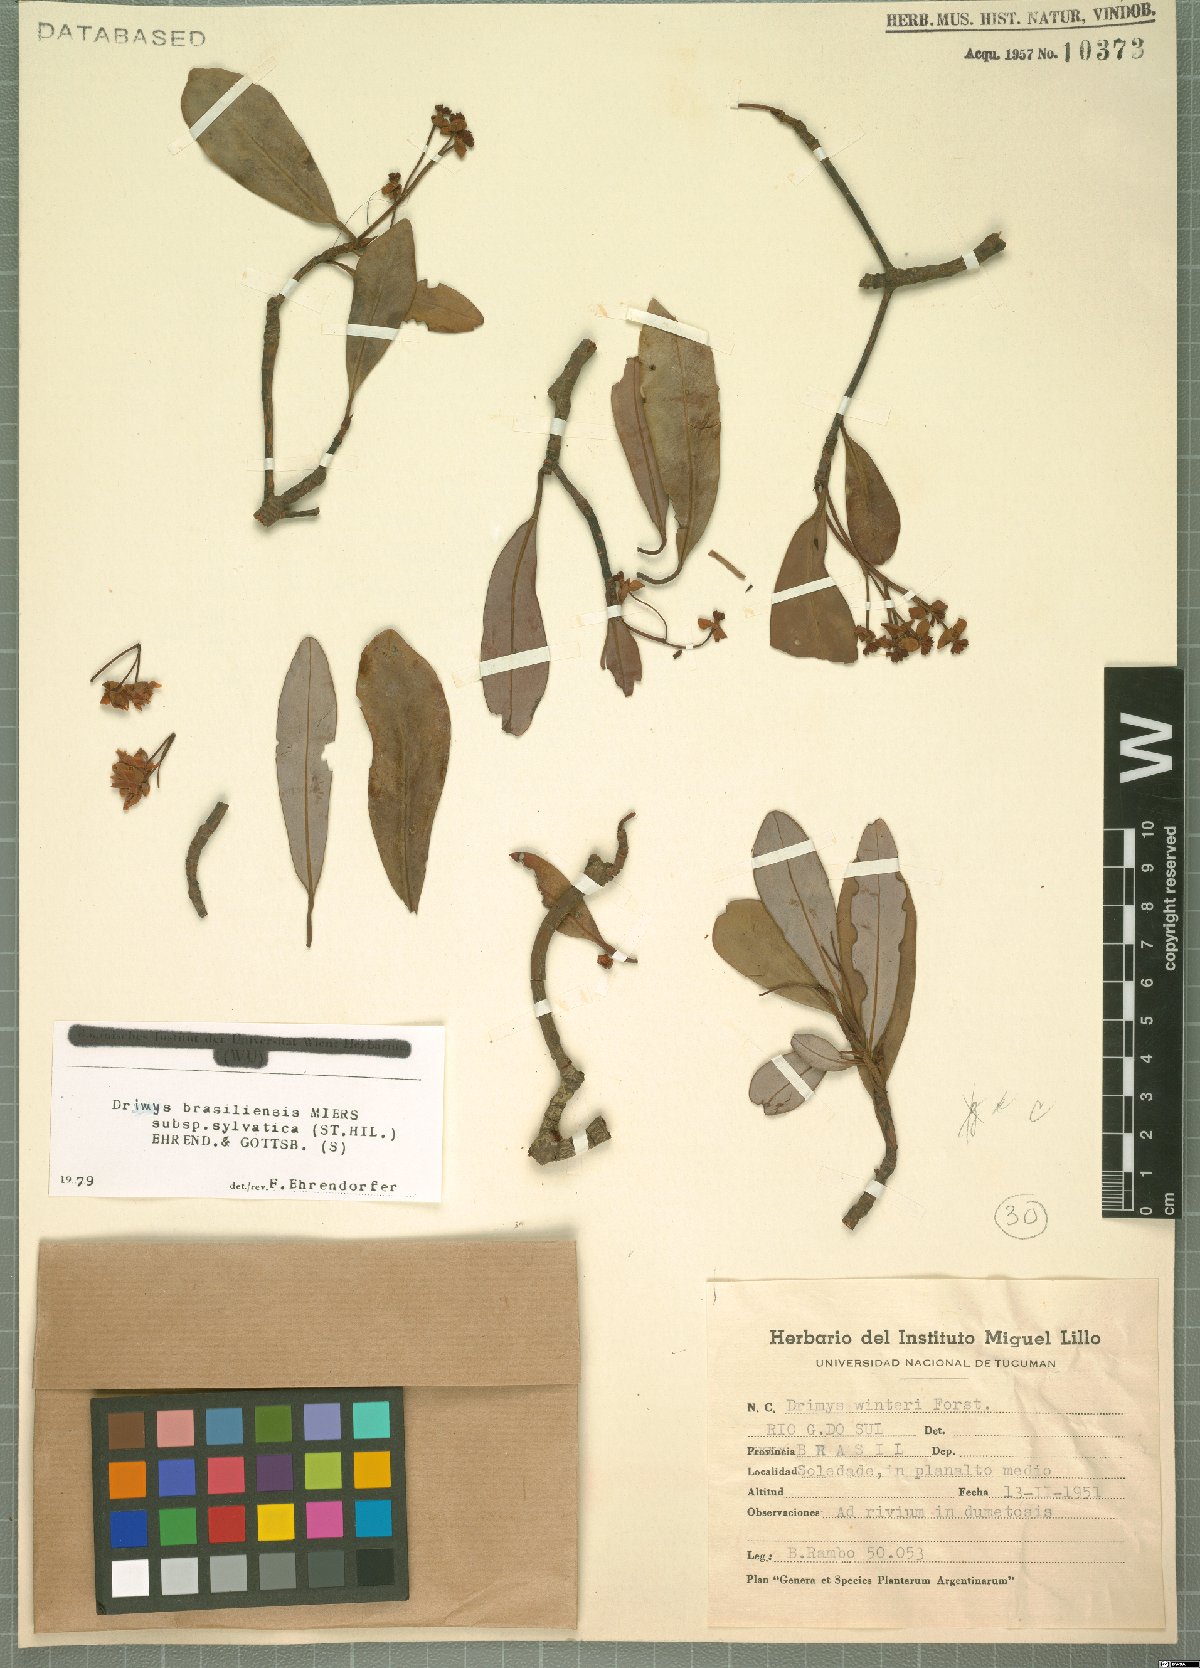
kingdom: Plantae
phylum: Tracheophyta
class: Magnoliopsida
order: Canellales
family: Winteraceae
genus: Drimys
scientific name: Drimys brasiliensis
